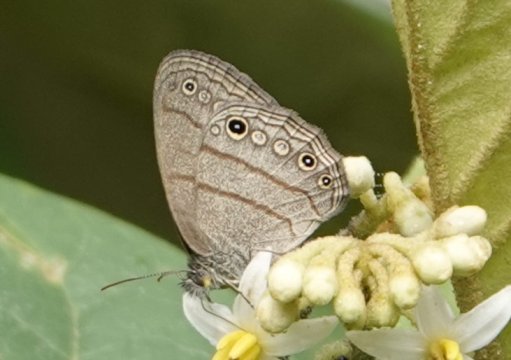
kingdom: Animalia
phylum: Arthropoda
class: Insecta
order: Lepidoptera
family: Nymphalidae
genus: Hermeuptychia
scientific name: Hermeuptychia hermes
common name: Hermes Satyr
